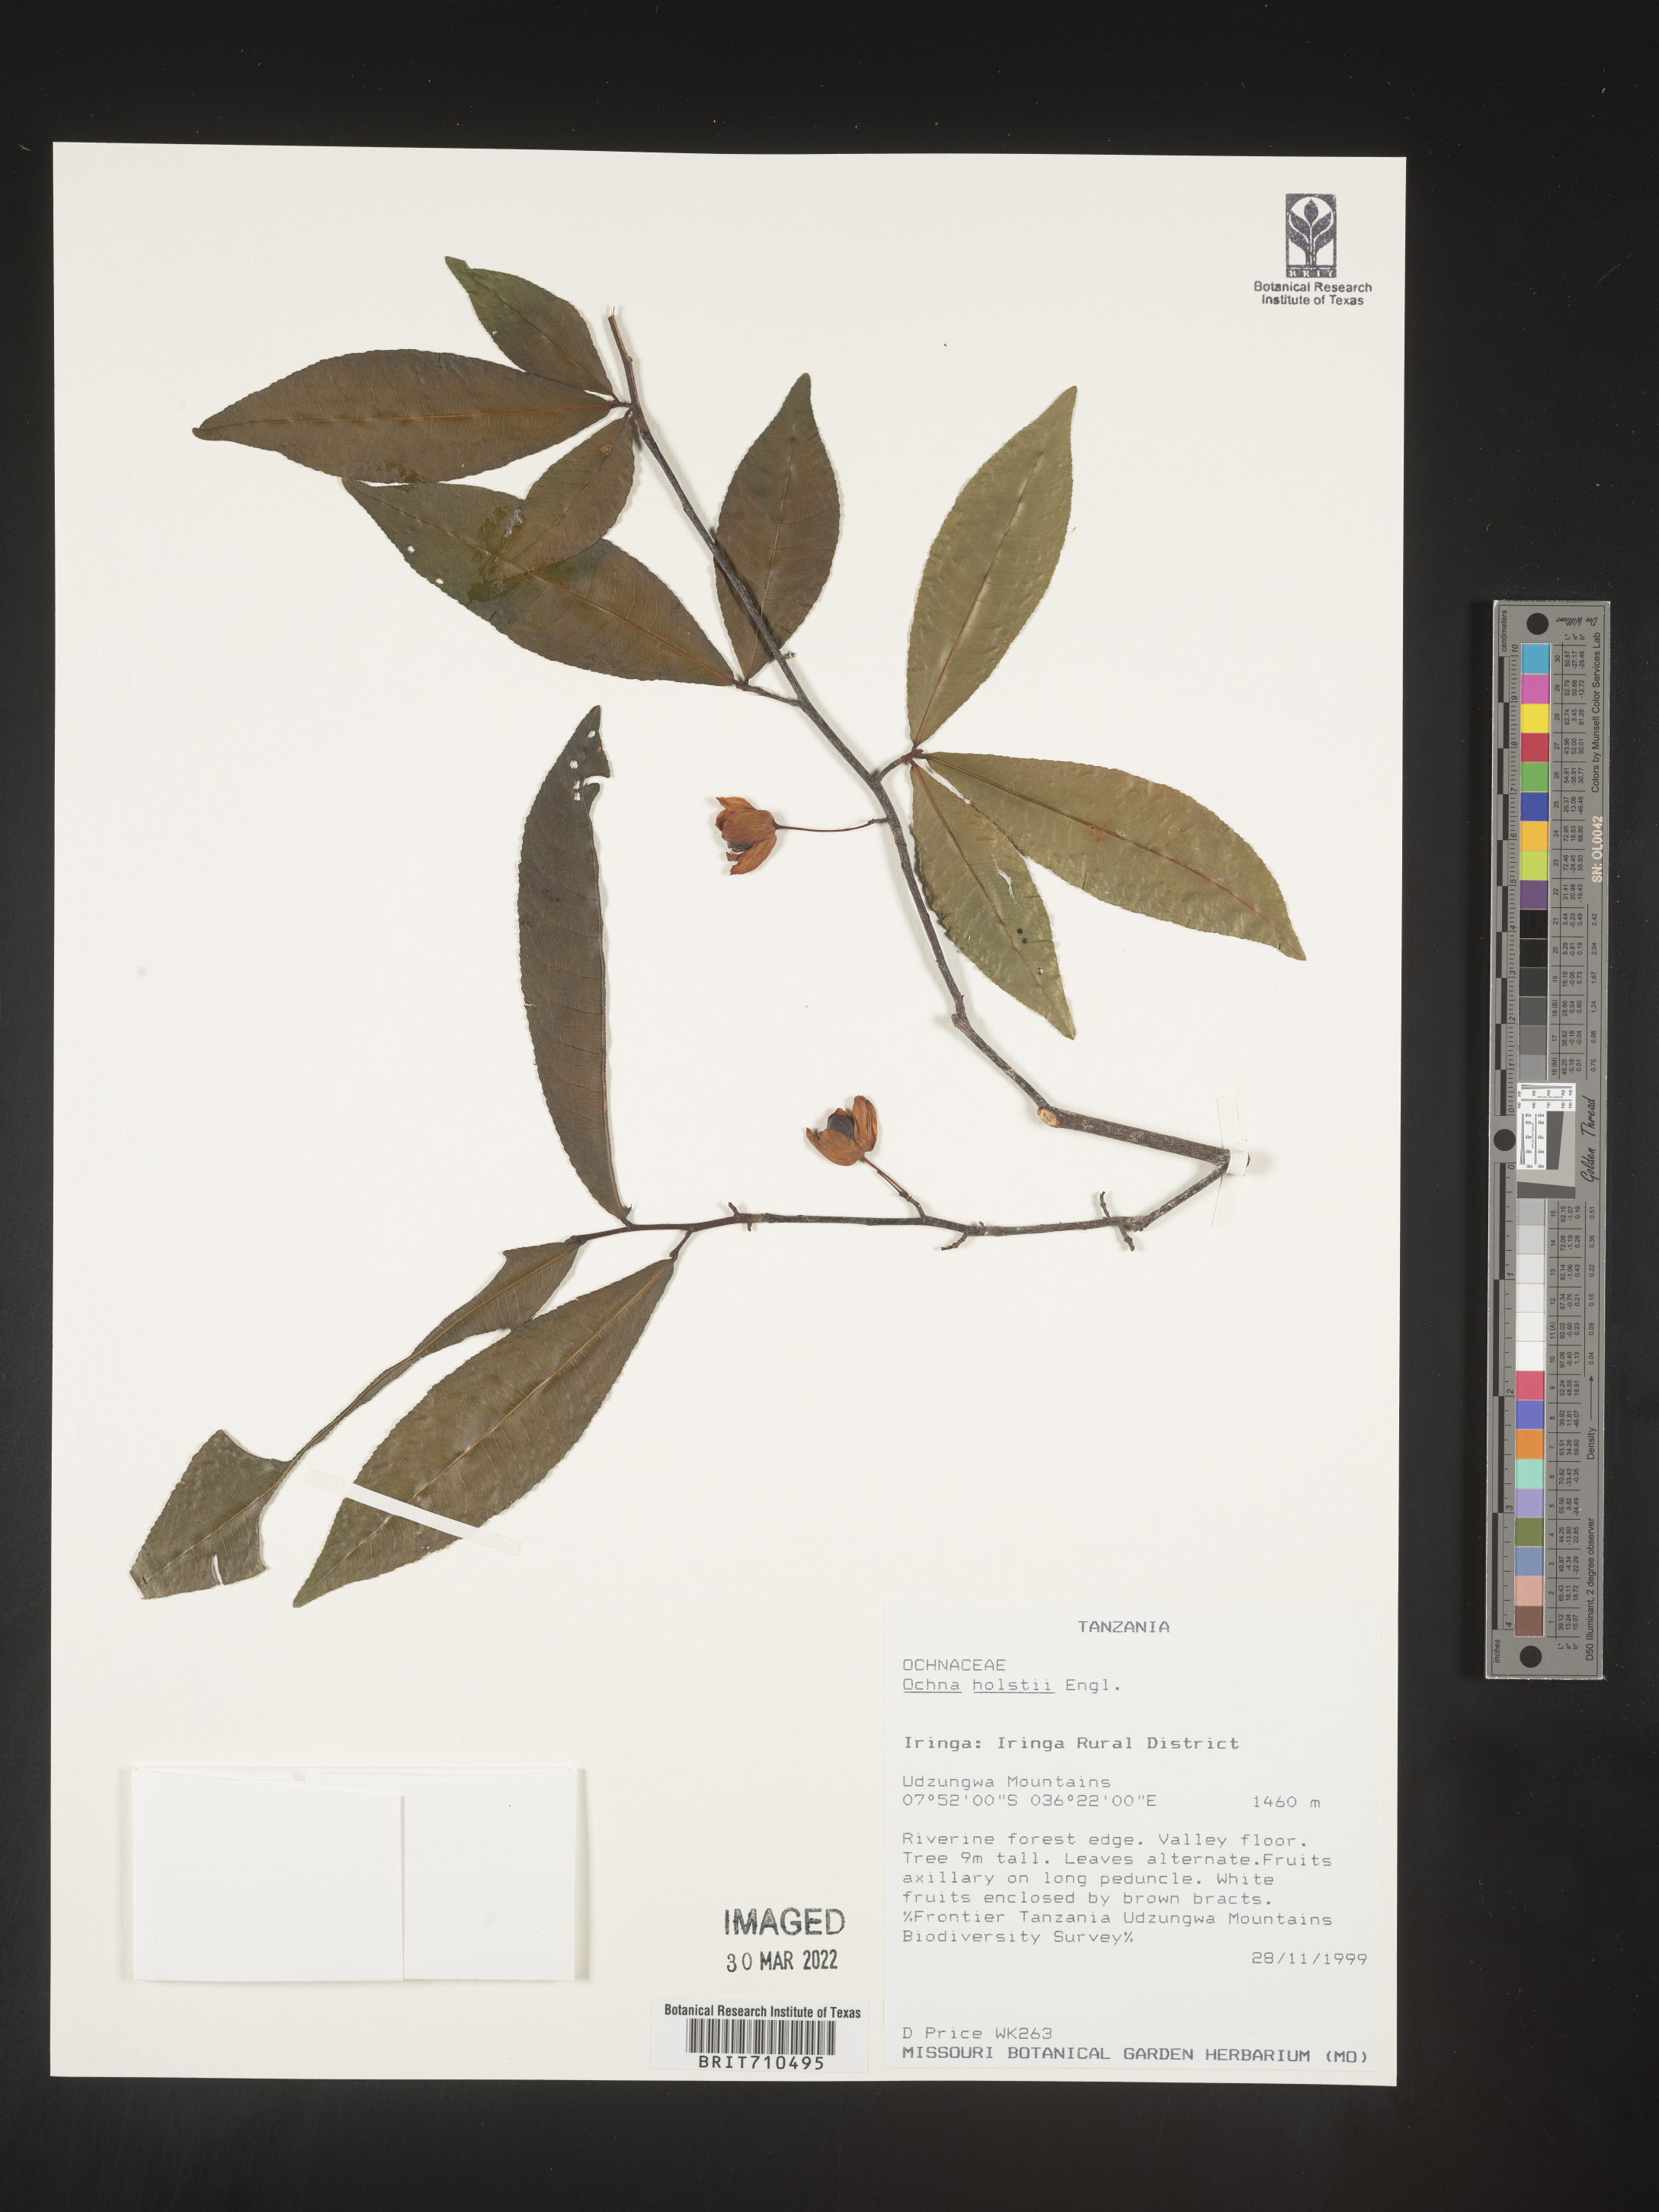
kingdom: Plantae
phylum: Tracheophyta
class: Magnoliopsida
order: Malpighiales
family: Ochnaceae
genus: Ochna
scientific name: Ochna
